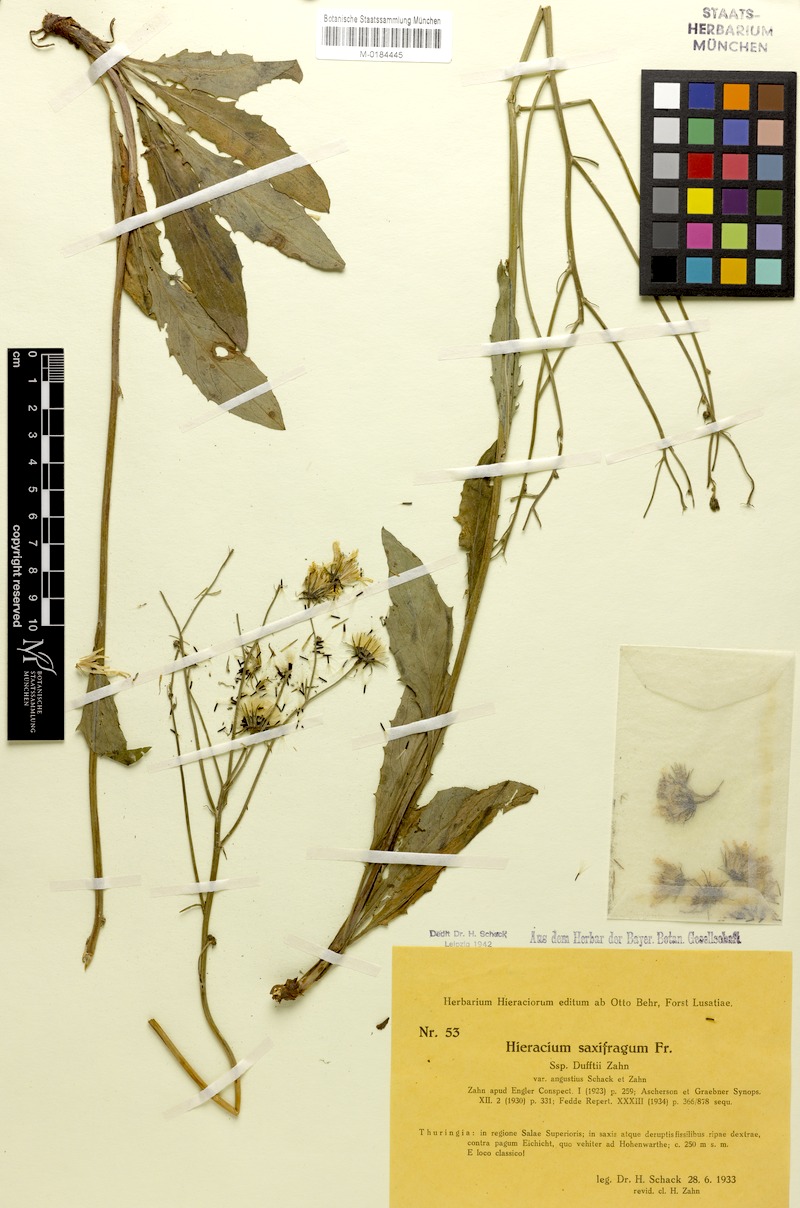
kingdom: Plantae
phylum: Tracheophyta
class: Magnoliopsida
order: Asterales
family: Asteraceae
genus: Hieracium
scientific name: Hieracium saxifragum
